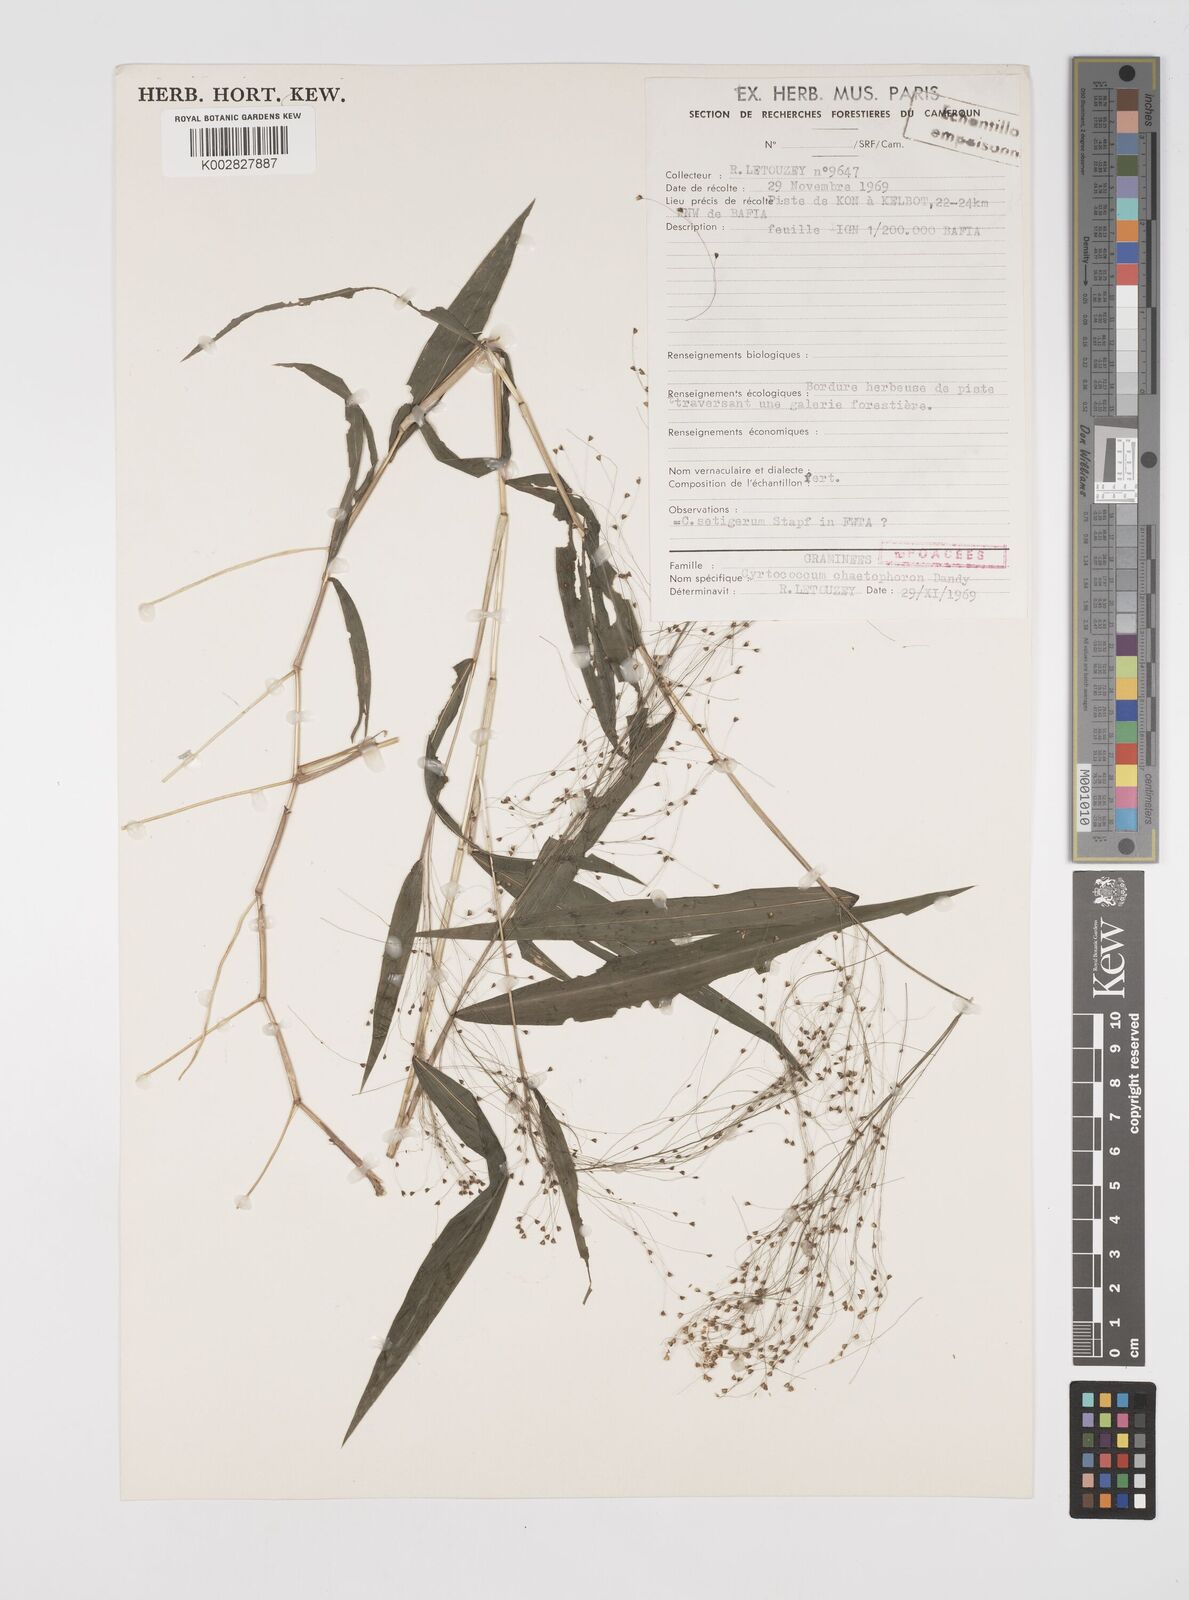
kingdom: Plantae
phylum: Tracheophyta
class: Liliopsida
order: Poales
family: Poaceae
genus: Cyrtococcum
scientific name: Cyrtococcum chaetophoron
